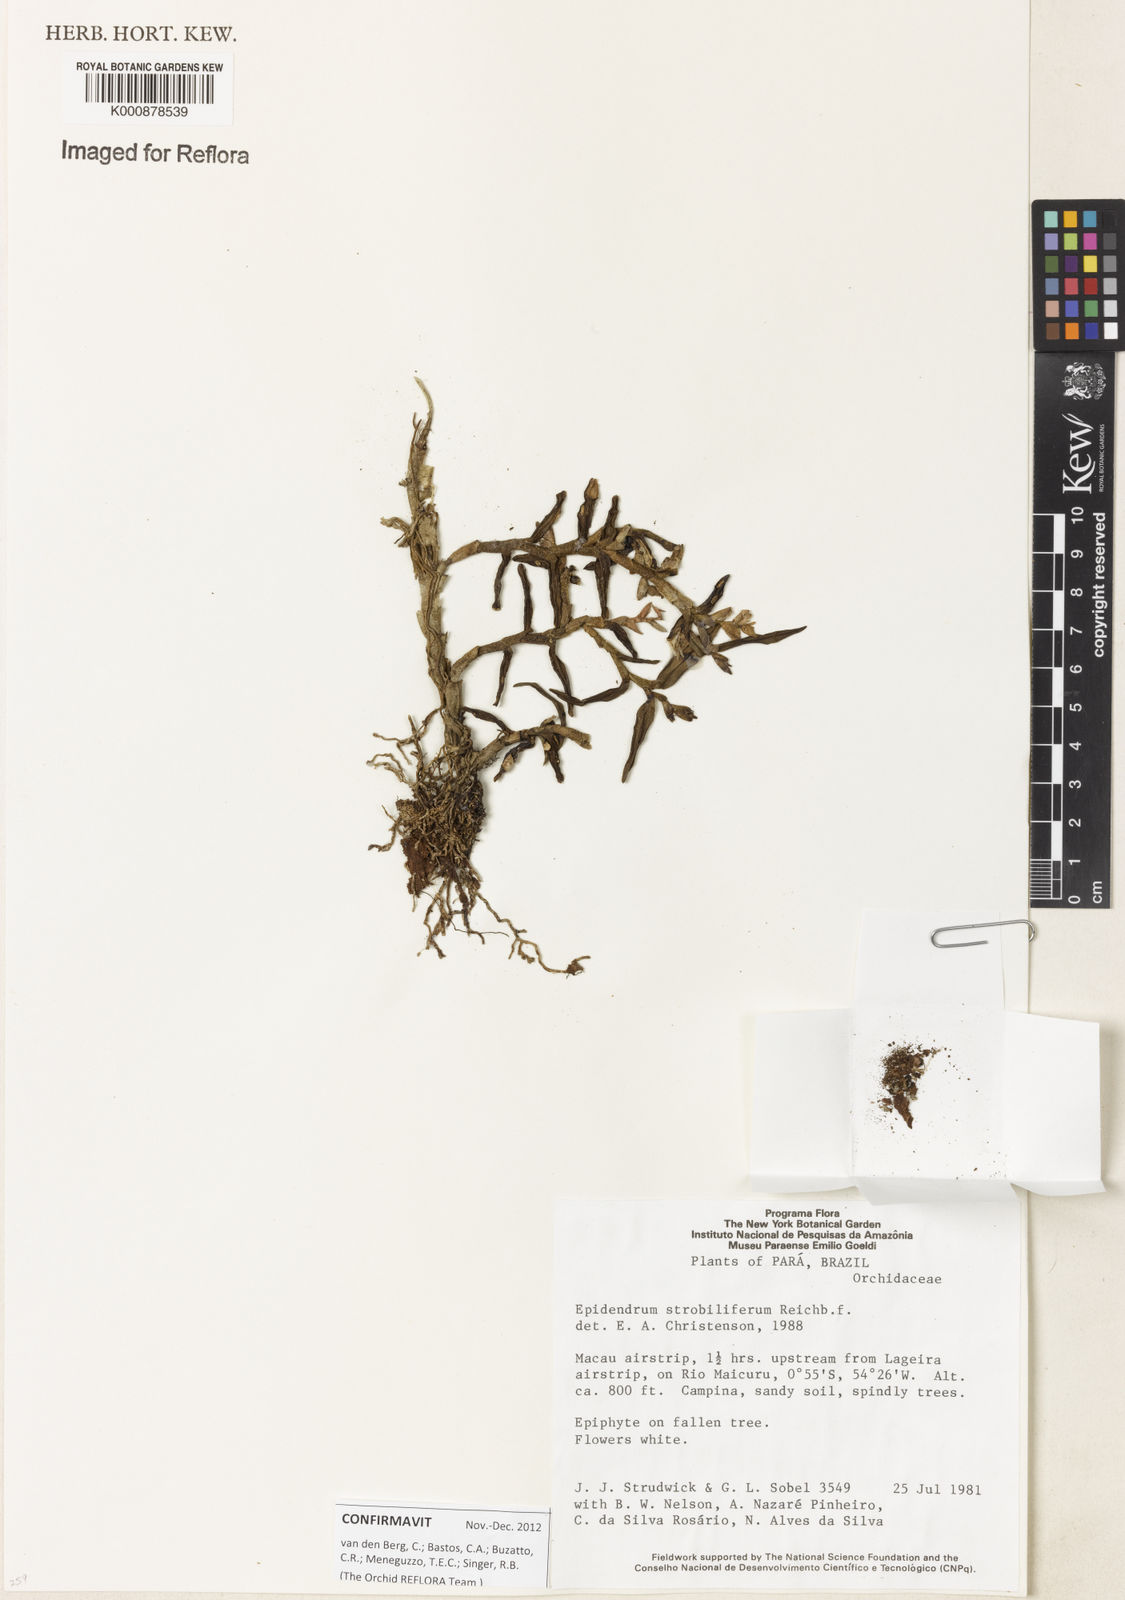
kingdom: Plantae
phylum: Tracheophyta
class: Liliopsida
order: Asparagales
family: Orchidaceae
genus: Epidendrum
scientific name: Epidendrum strobiliferum
